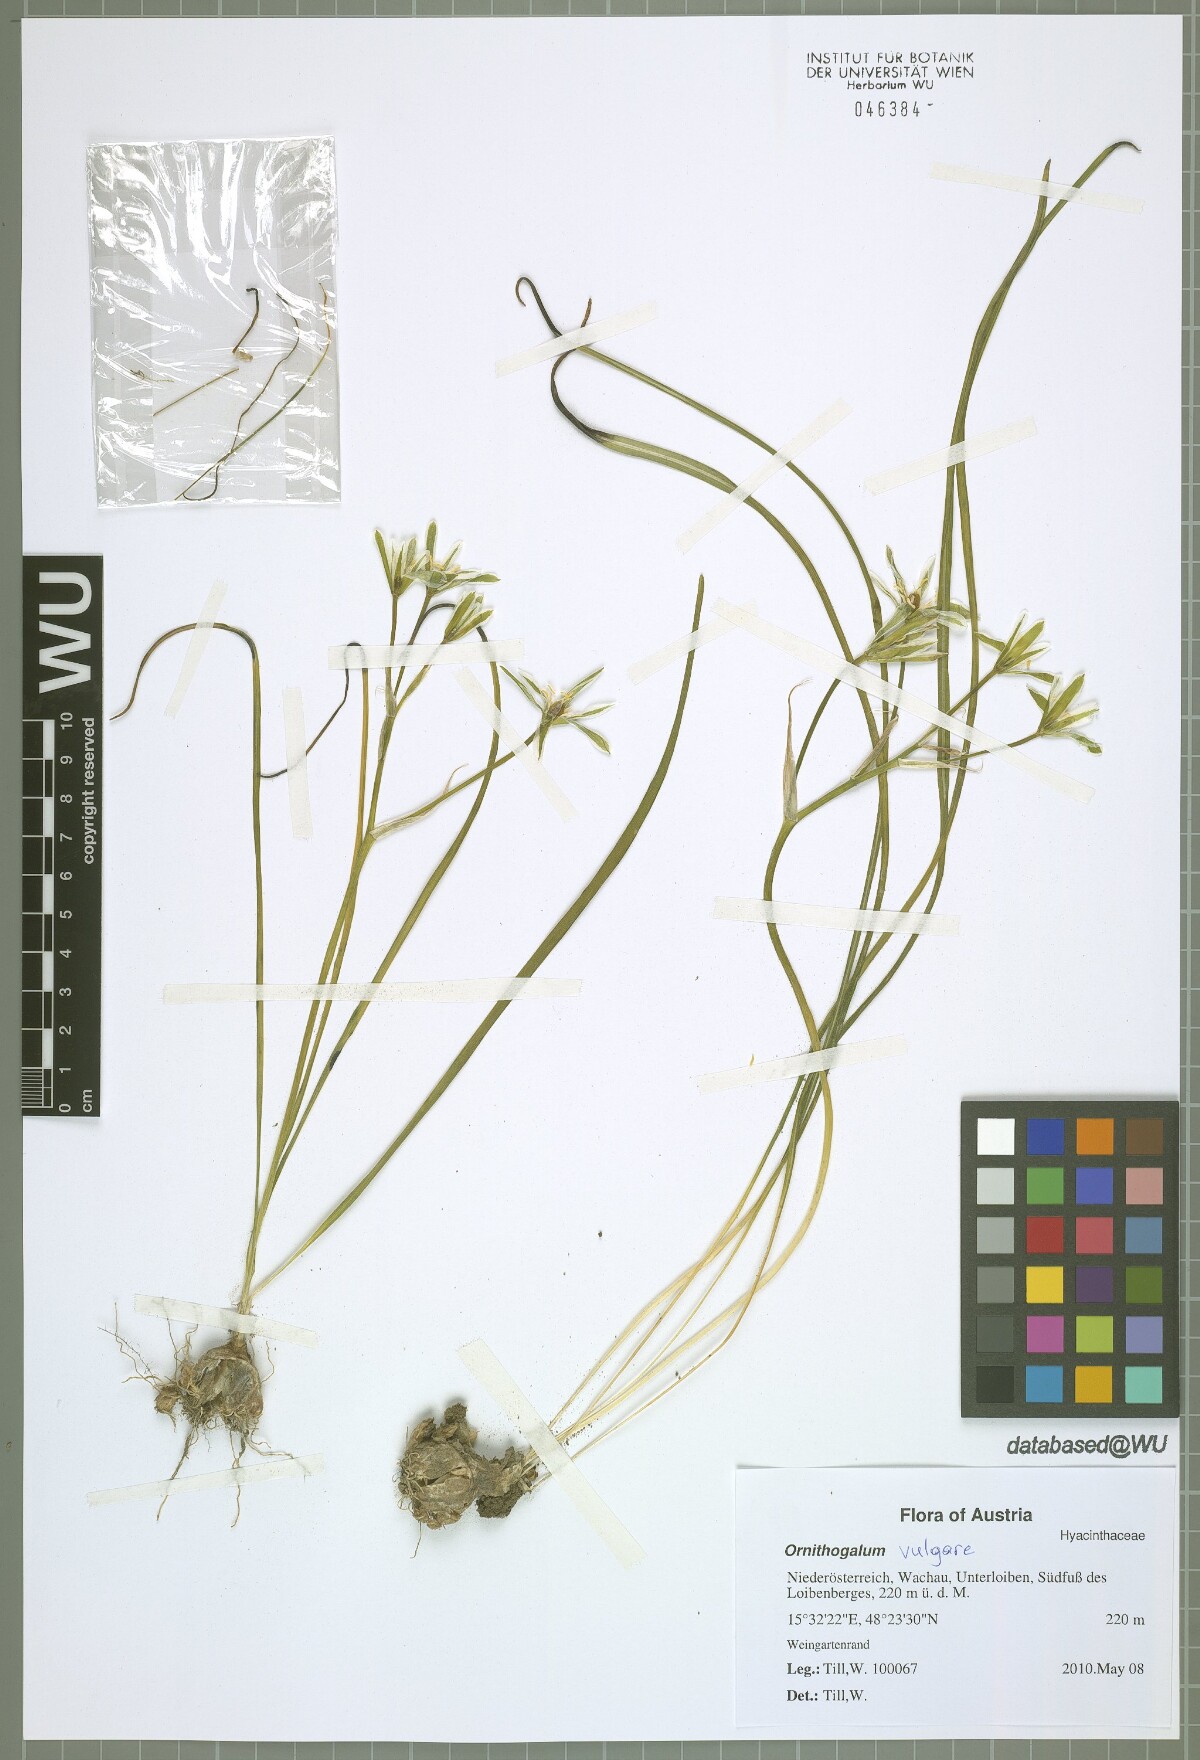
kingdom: Plantae
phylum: Tracheophyta
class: Liliopsida
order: Asparagales
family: Asparagaceae
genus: Ornithogalum
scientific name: Ornithogalum vulgare
